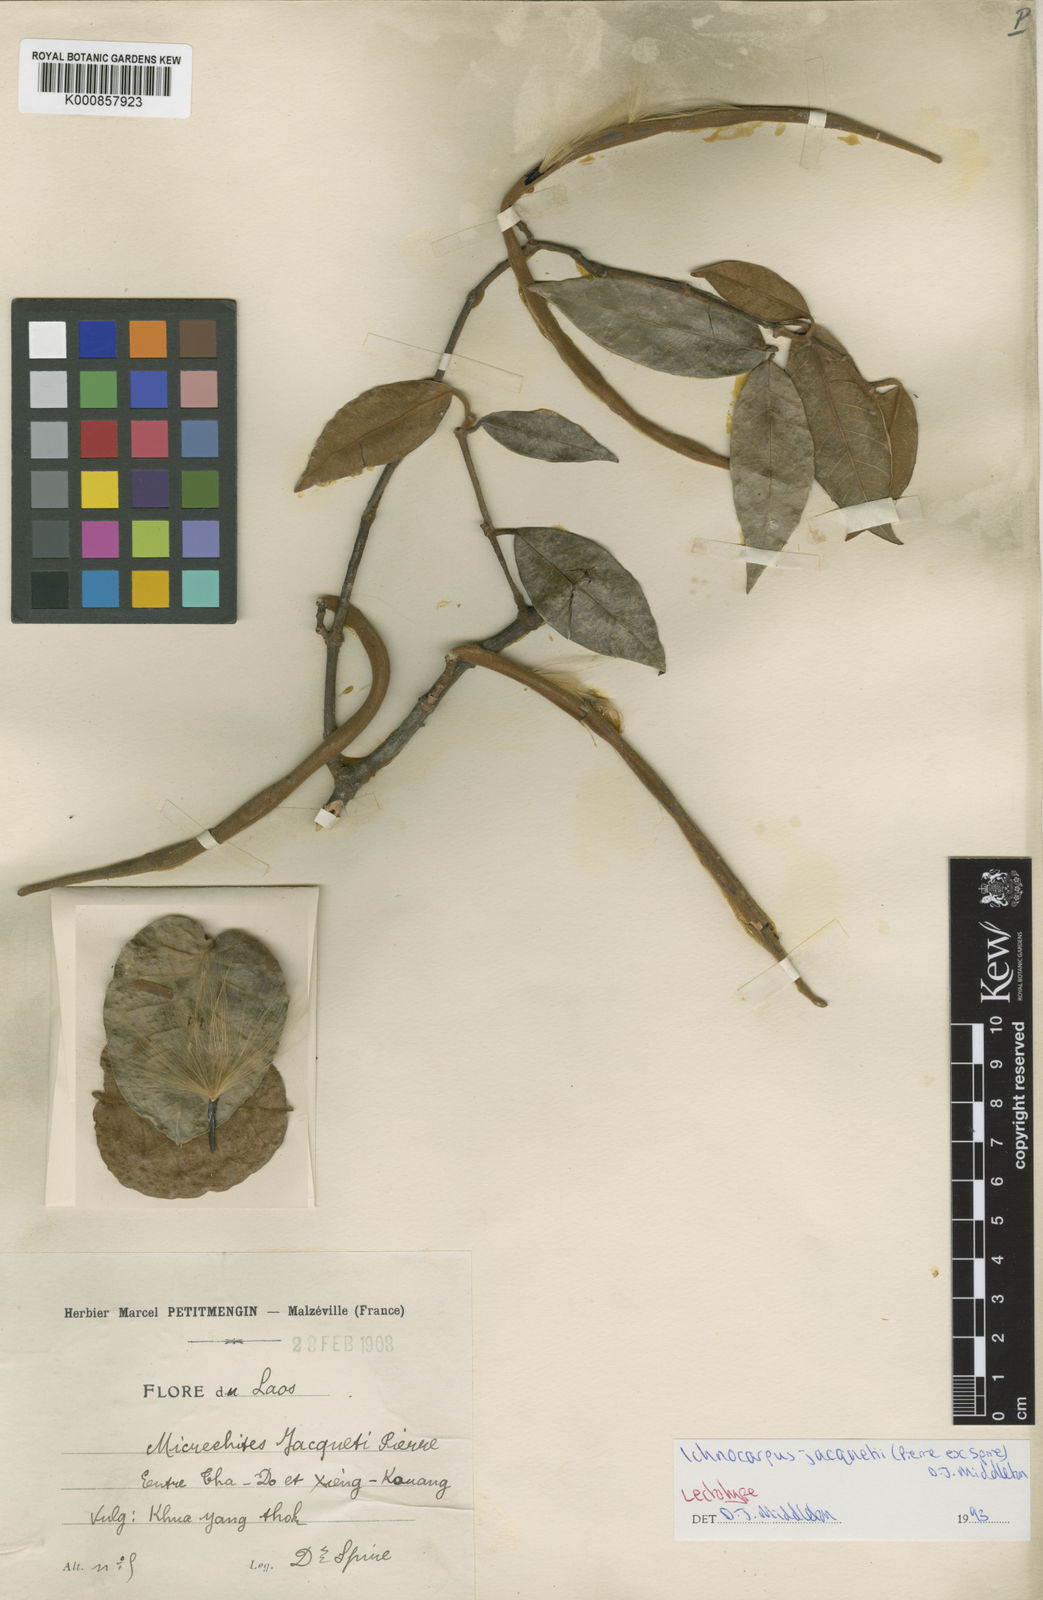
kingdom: Plantae
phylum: Tracheophyta
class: Magnoliopsida
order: Gentianales
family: Apocynaceae
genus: Micrechites
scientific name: Micrechites jacquetii
